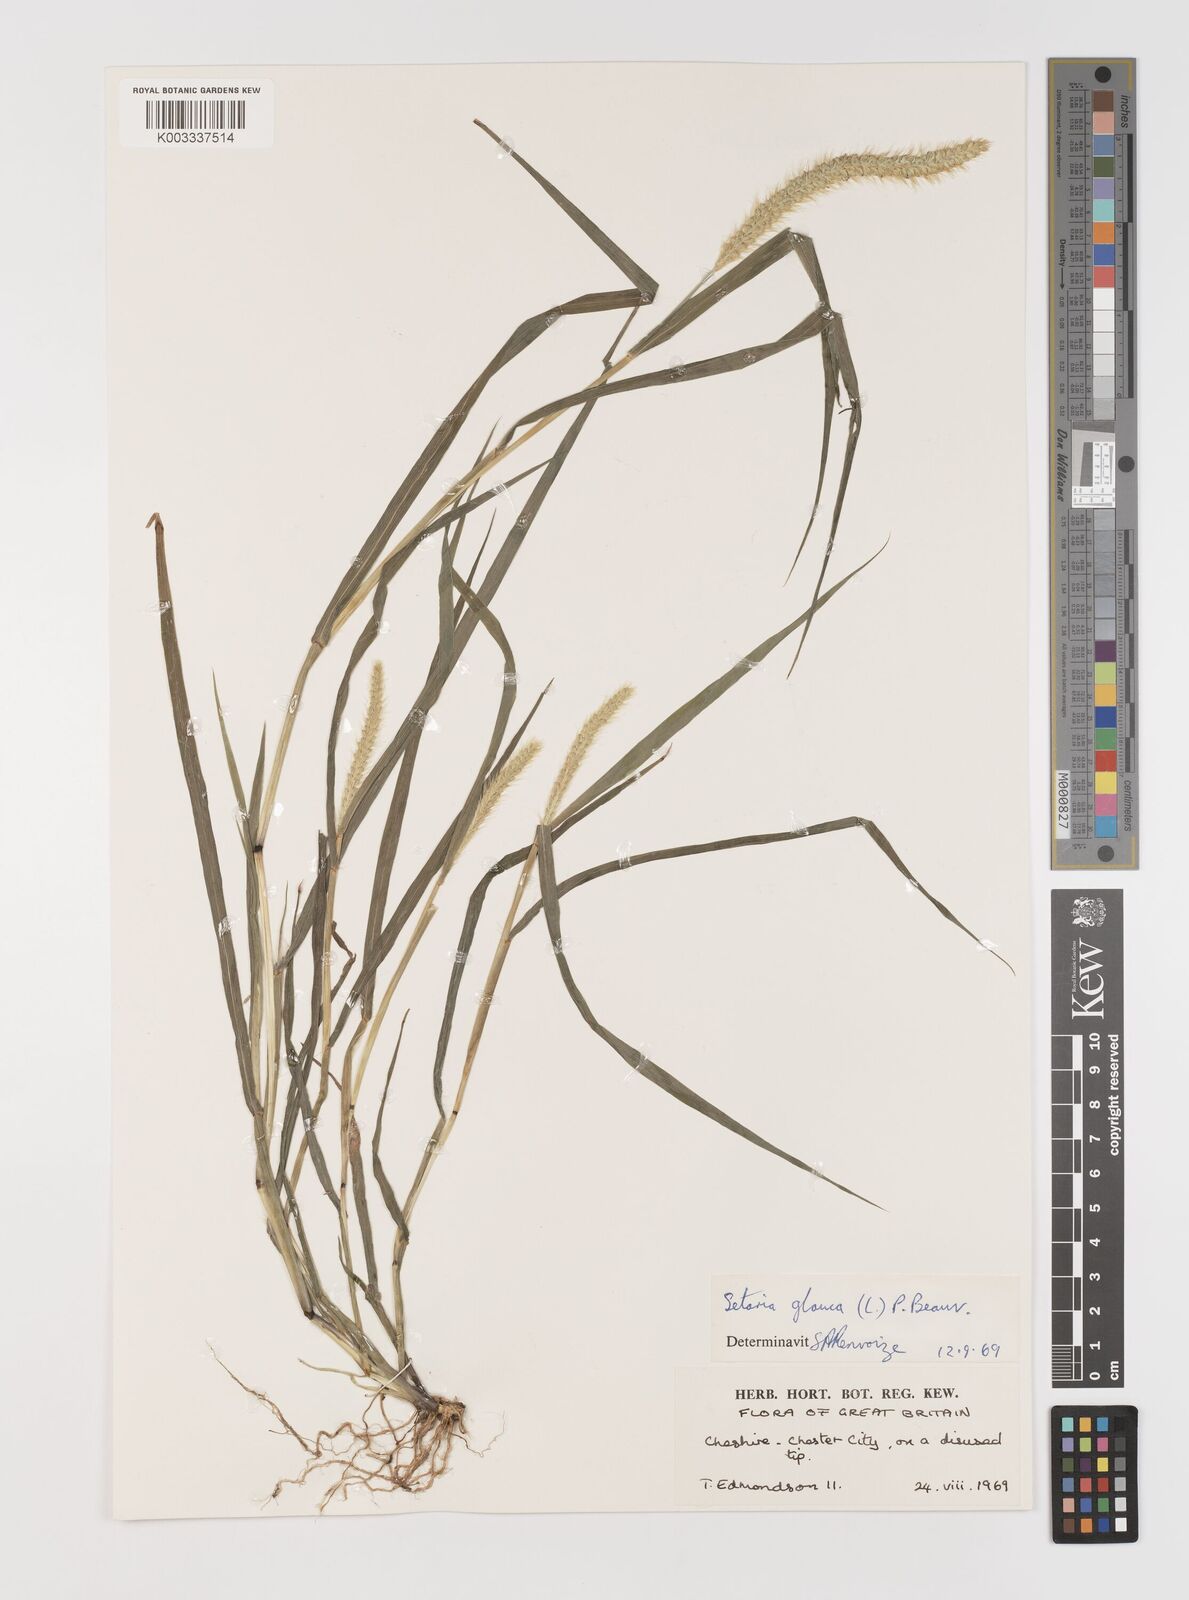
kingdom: Plantae
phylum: Tracheophyta
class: Liliopsida
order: Poales
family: Poaceae
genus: Setaria
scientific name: Setaria pumila
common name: Yellow bristle-grass
